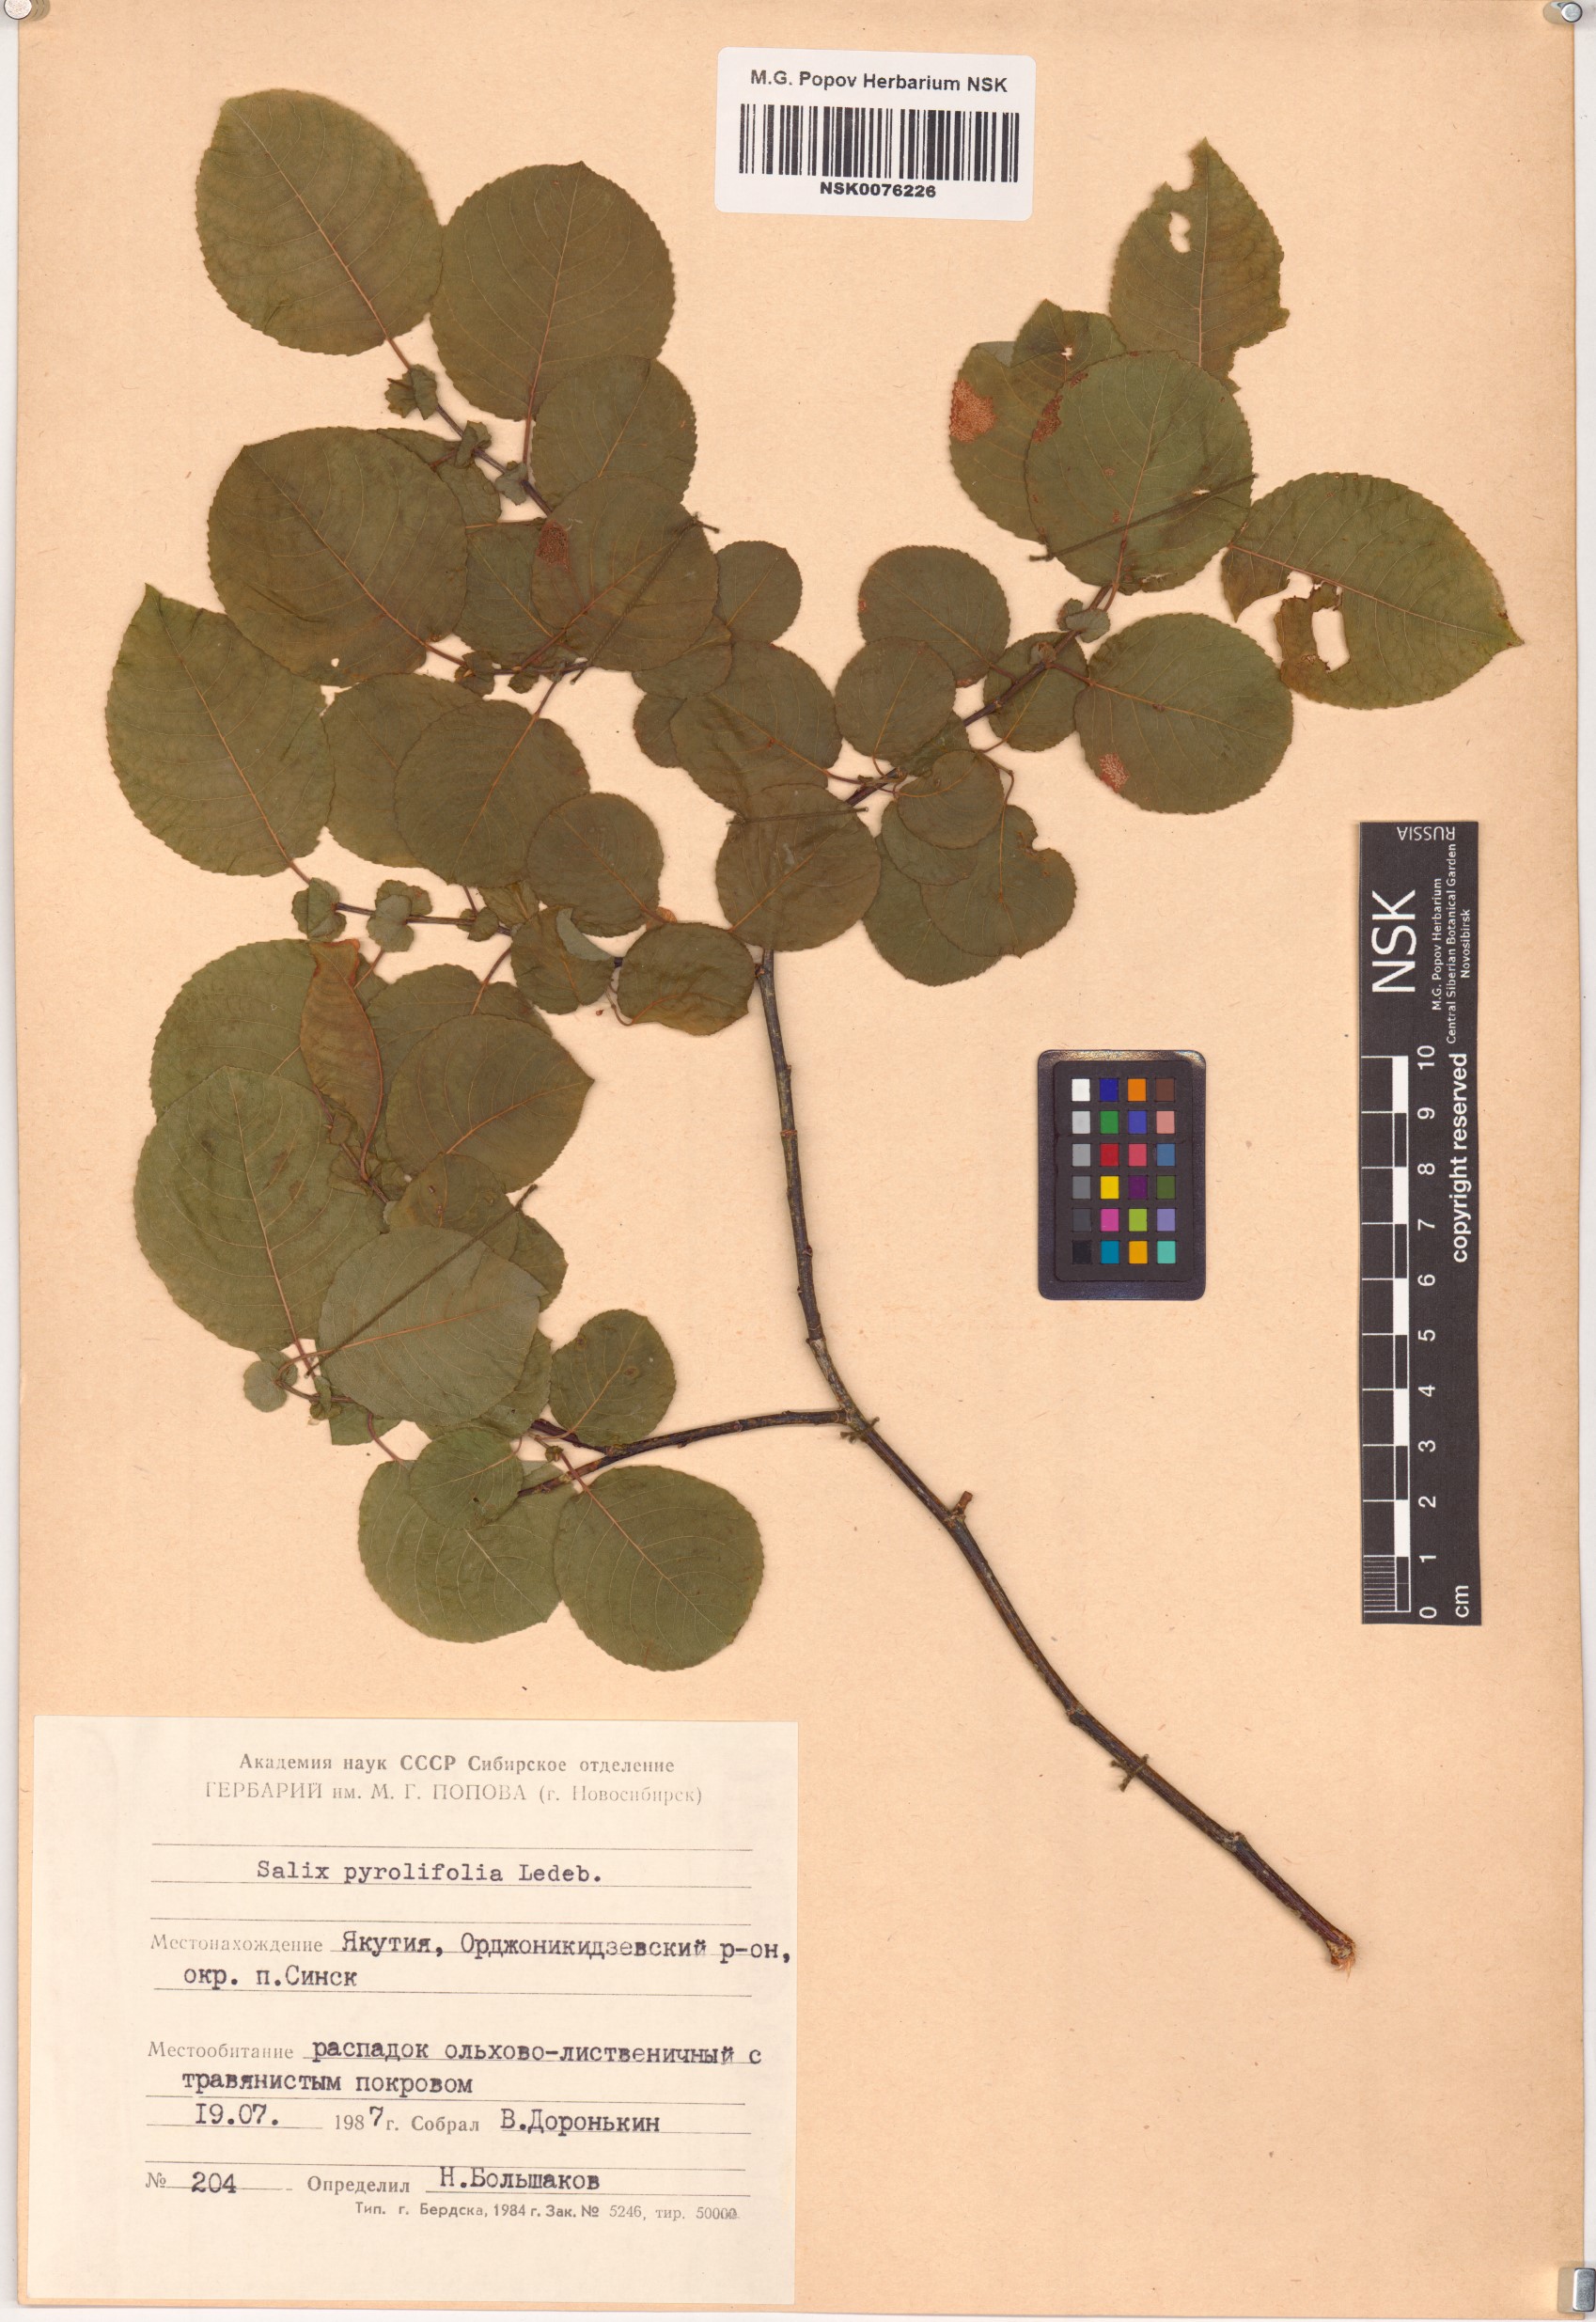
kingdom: Plantae
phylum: Tracheophyta
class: Magnoliopsida
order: Malpighiales
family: Salicaceae
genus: Salix
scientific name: Salix pyrolifolia
